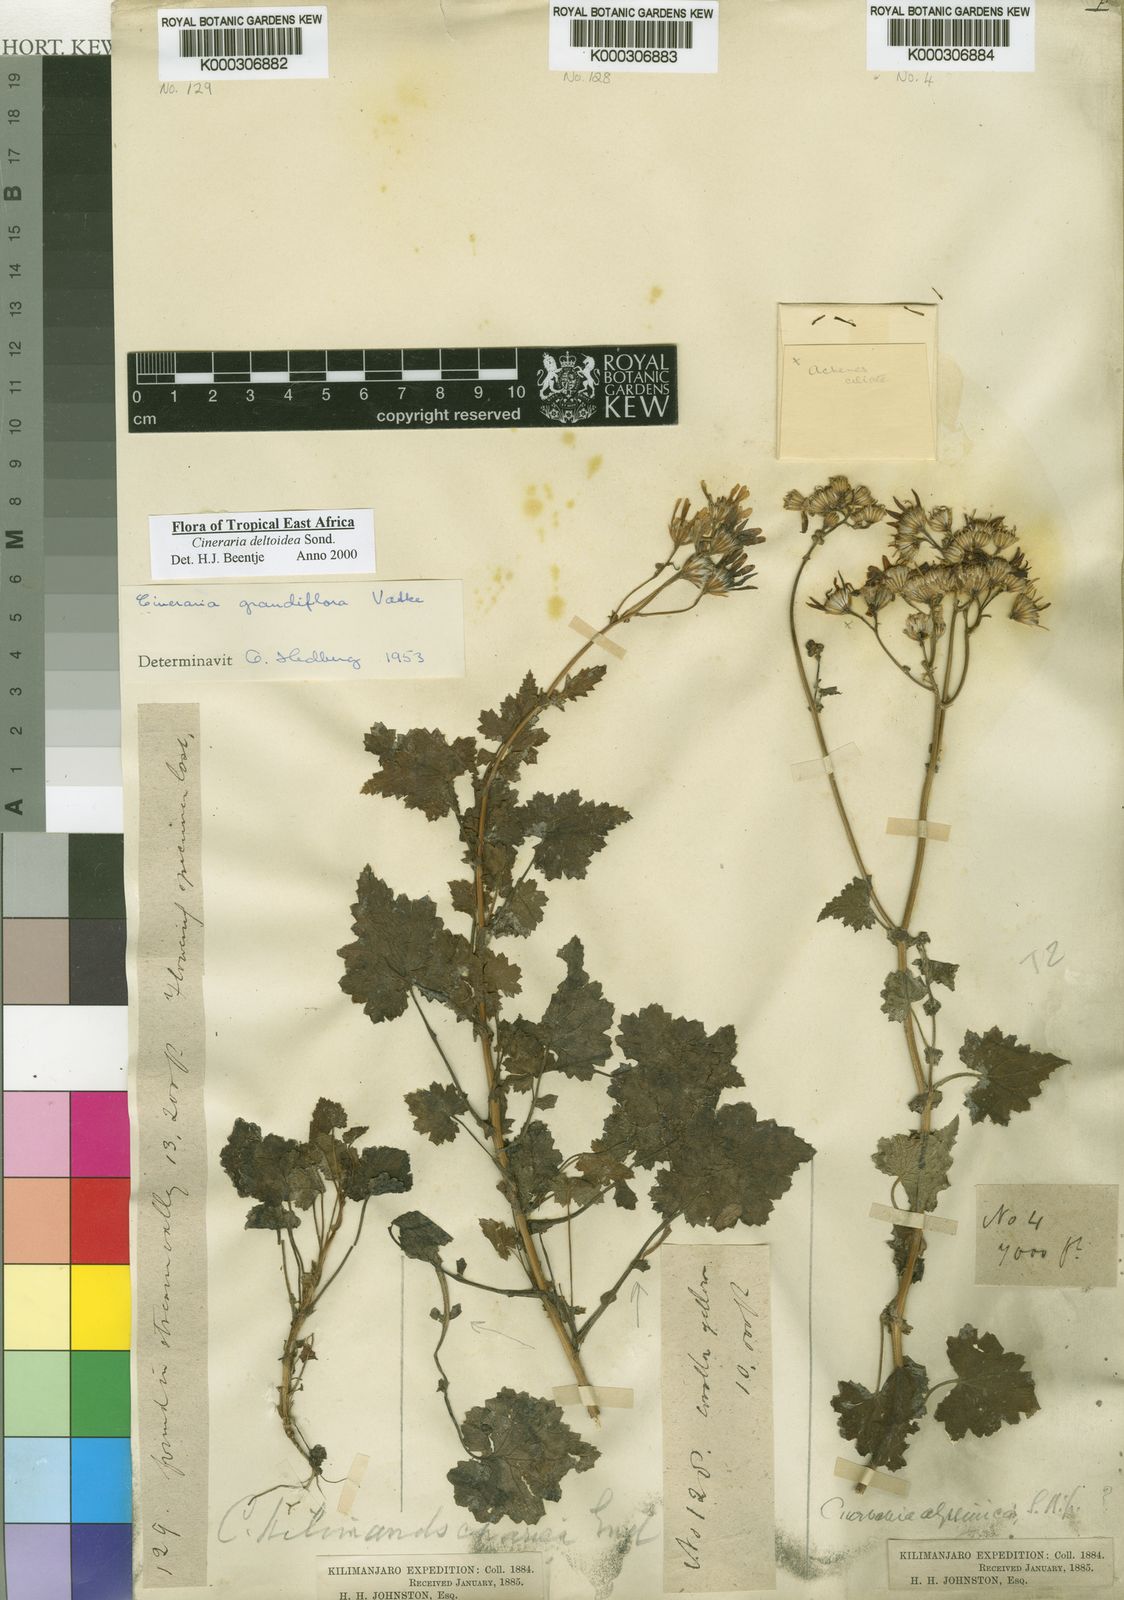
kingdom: Plantae
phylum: Tracheophyta
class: Magnoliopsida
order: Asterales
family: Asteraceae
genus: Cineraria
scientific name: Cineraria deltoidea
